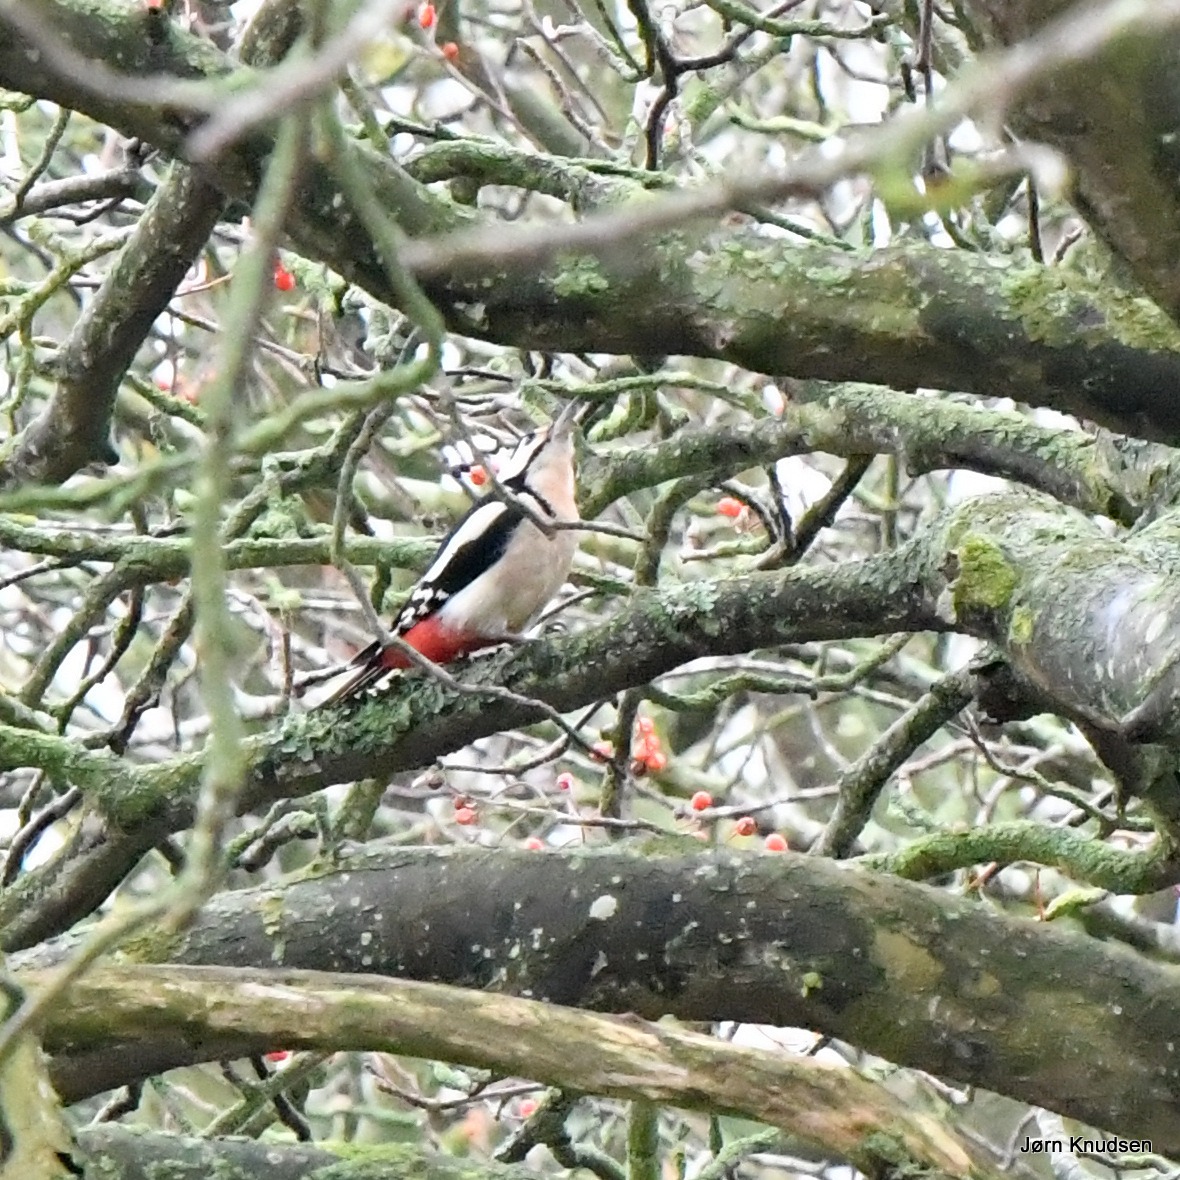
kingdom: Animalia
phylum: Chordata
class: Aves
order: Piciformes
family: Picidae
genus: Dendrocopos
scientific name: Dendrocopos major
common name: Stor flagspætte
